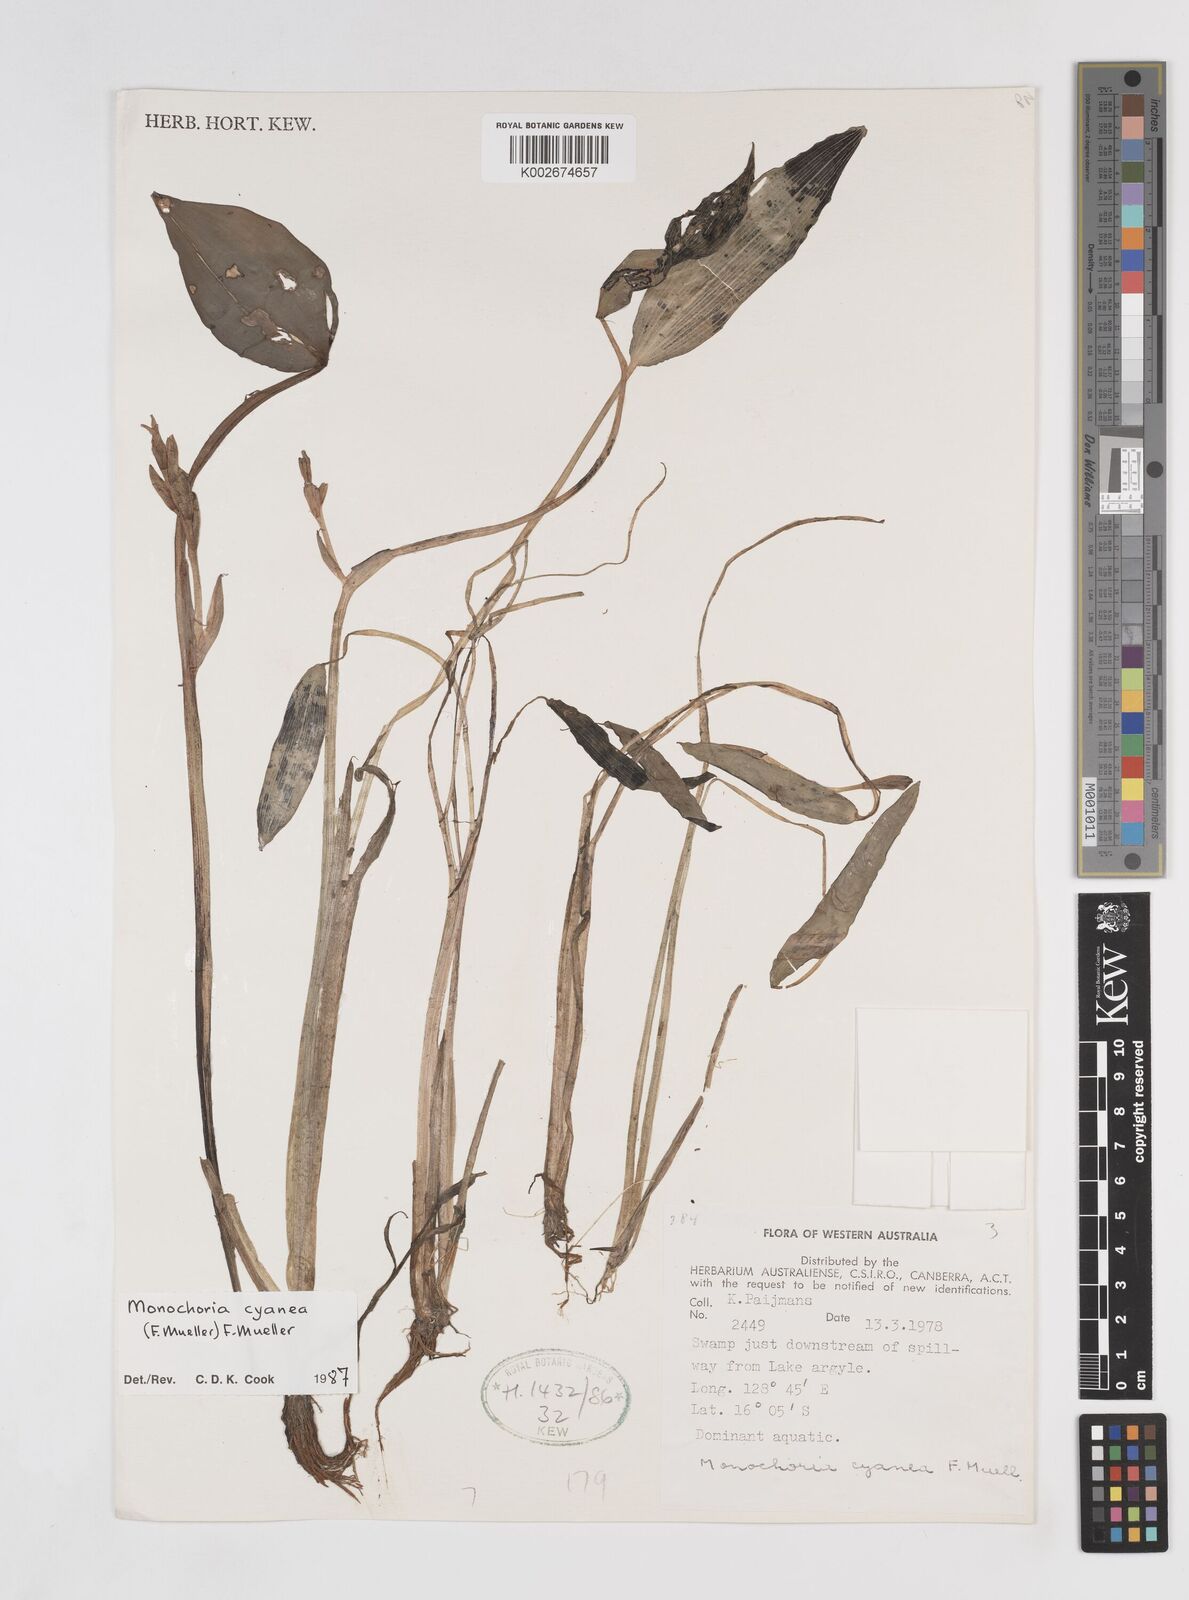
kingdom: Plantae
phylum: Tracheophyta
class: Liliopsida
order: Commelinales
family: Pontederiaceae
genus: Pontederia
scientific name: Pontederia cyanea
